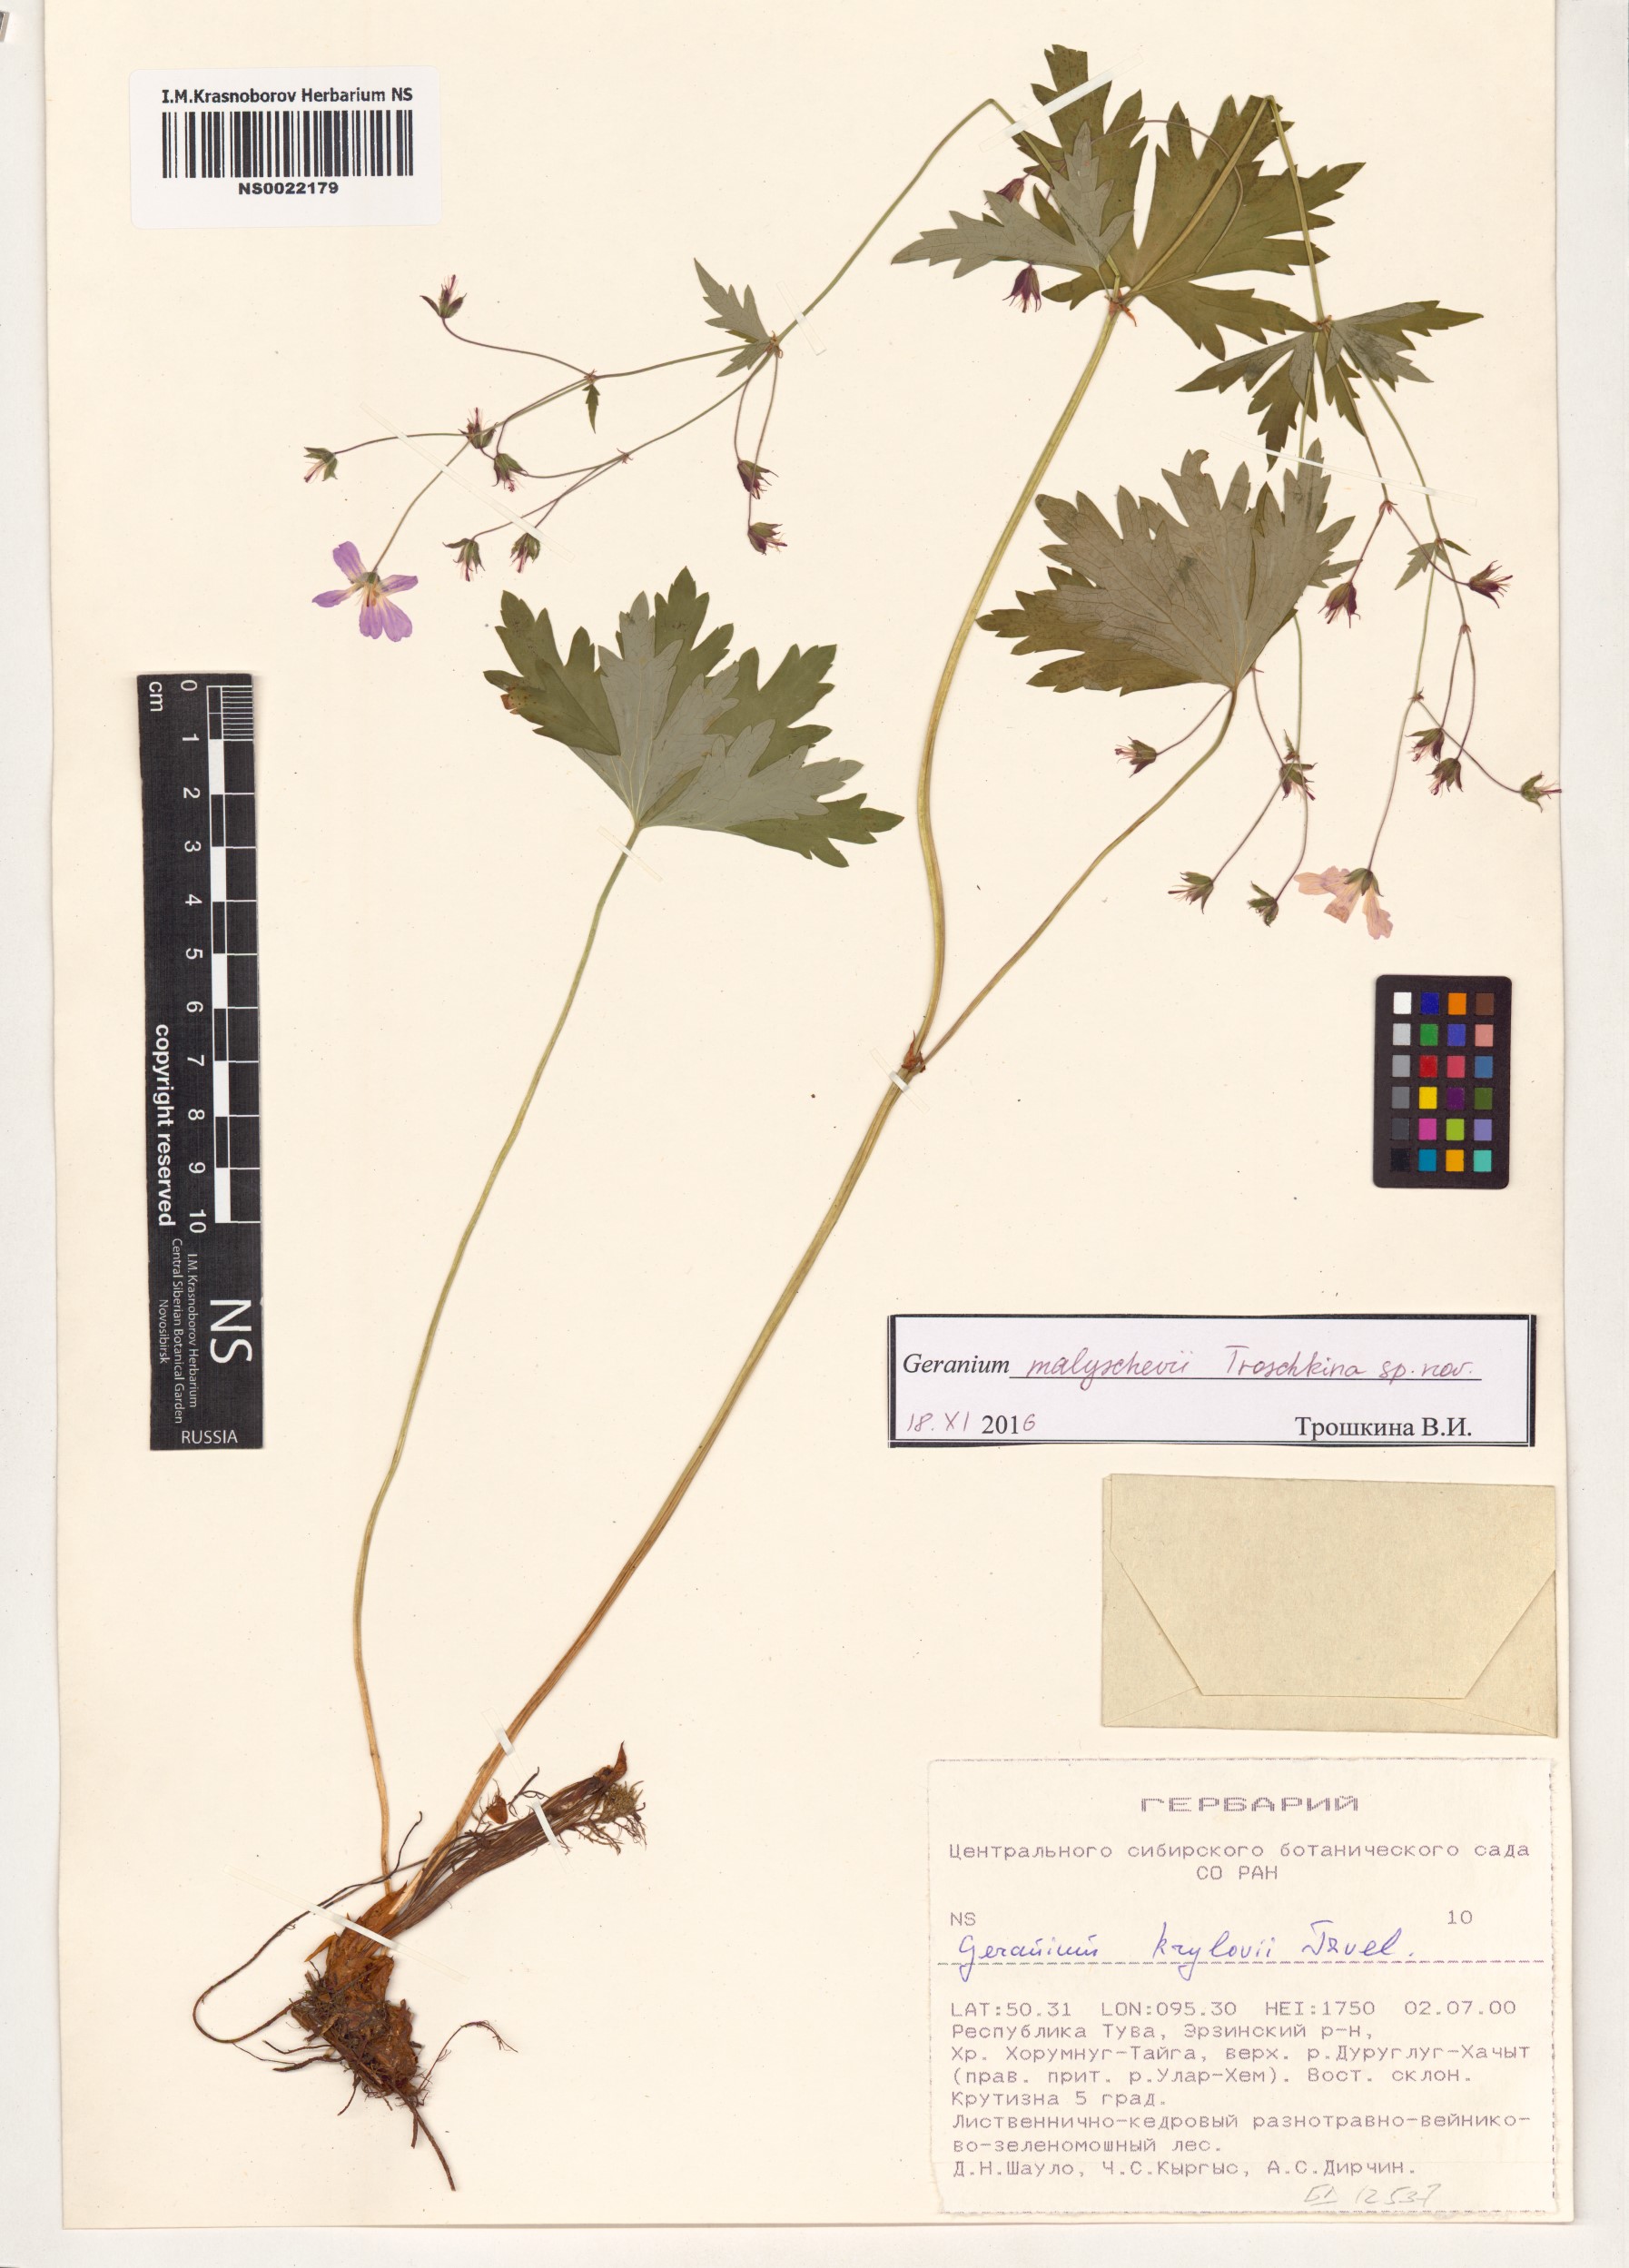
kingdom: Plantae
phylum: Tracheophyta
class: Magnoliopsida
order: Geraniales
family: Geraniaceae
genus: Geranium
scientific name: Geranium malyschevii
